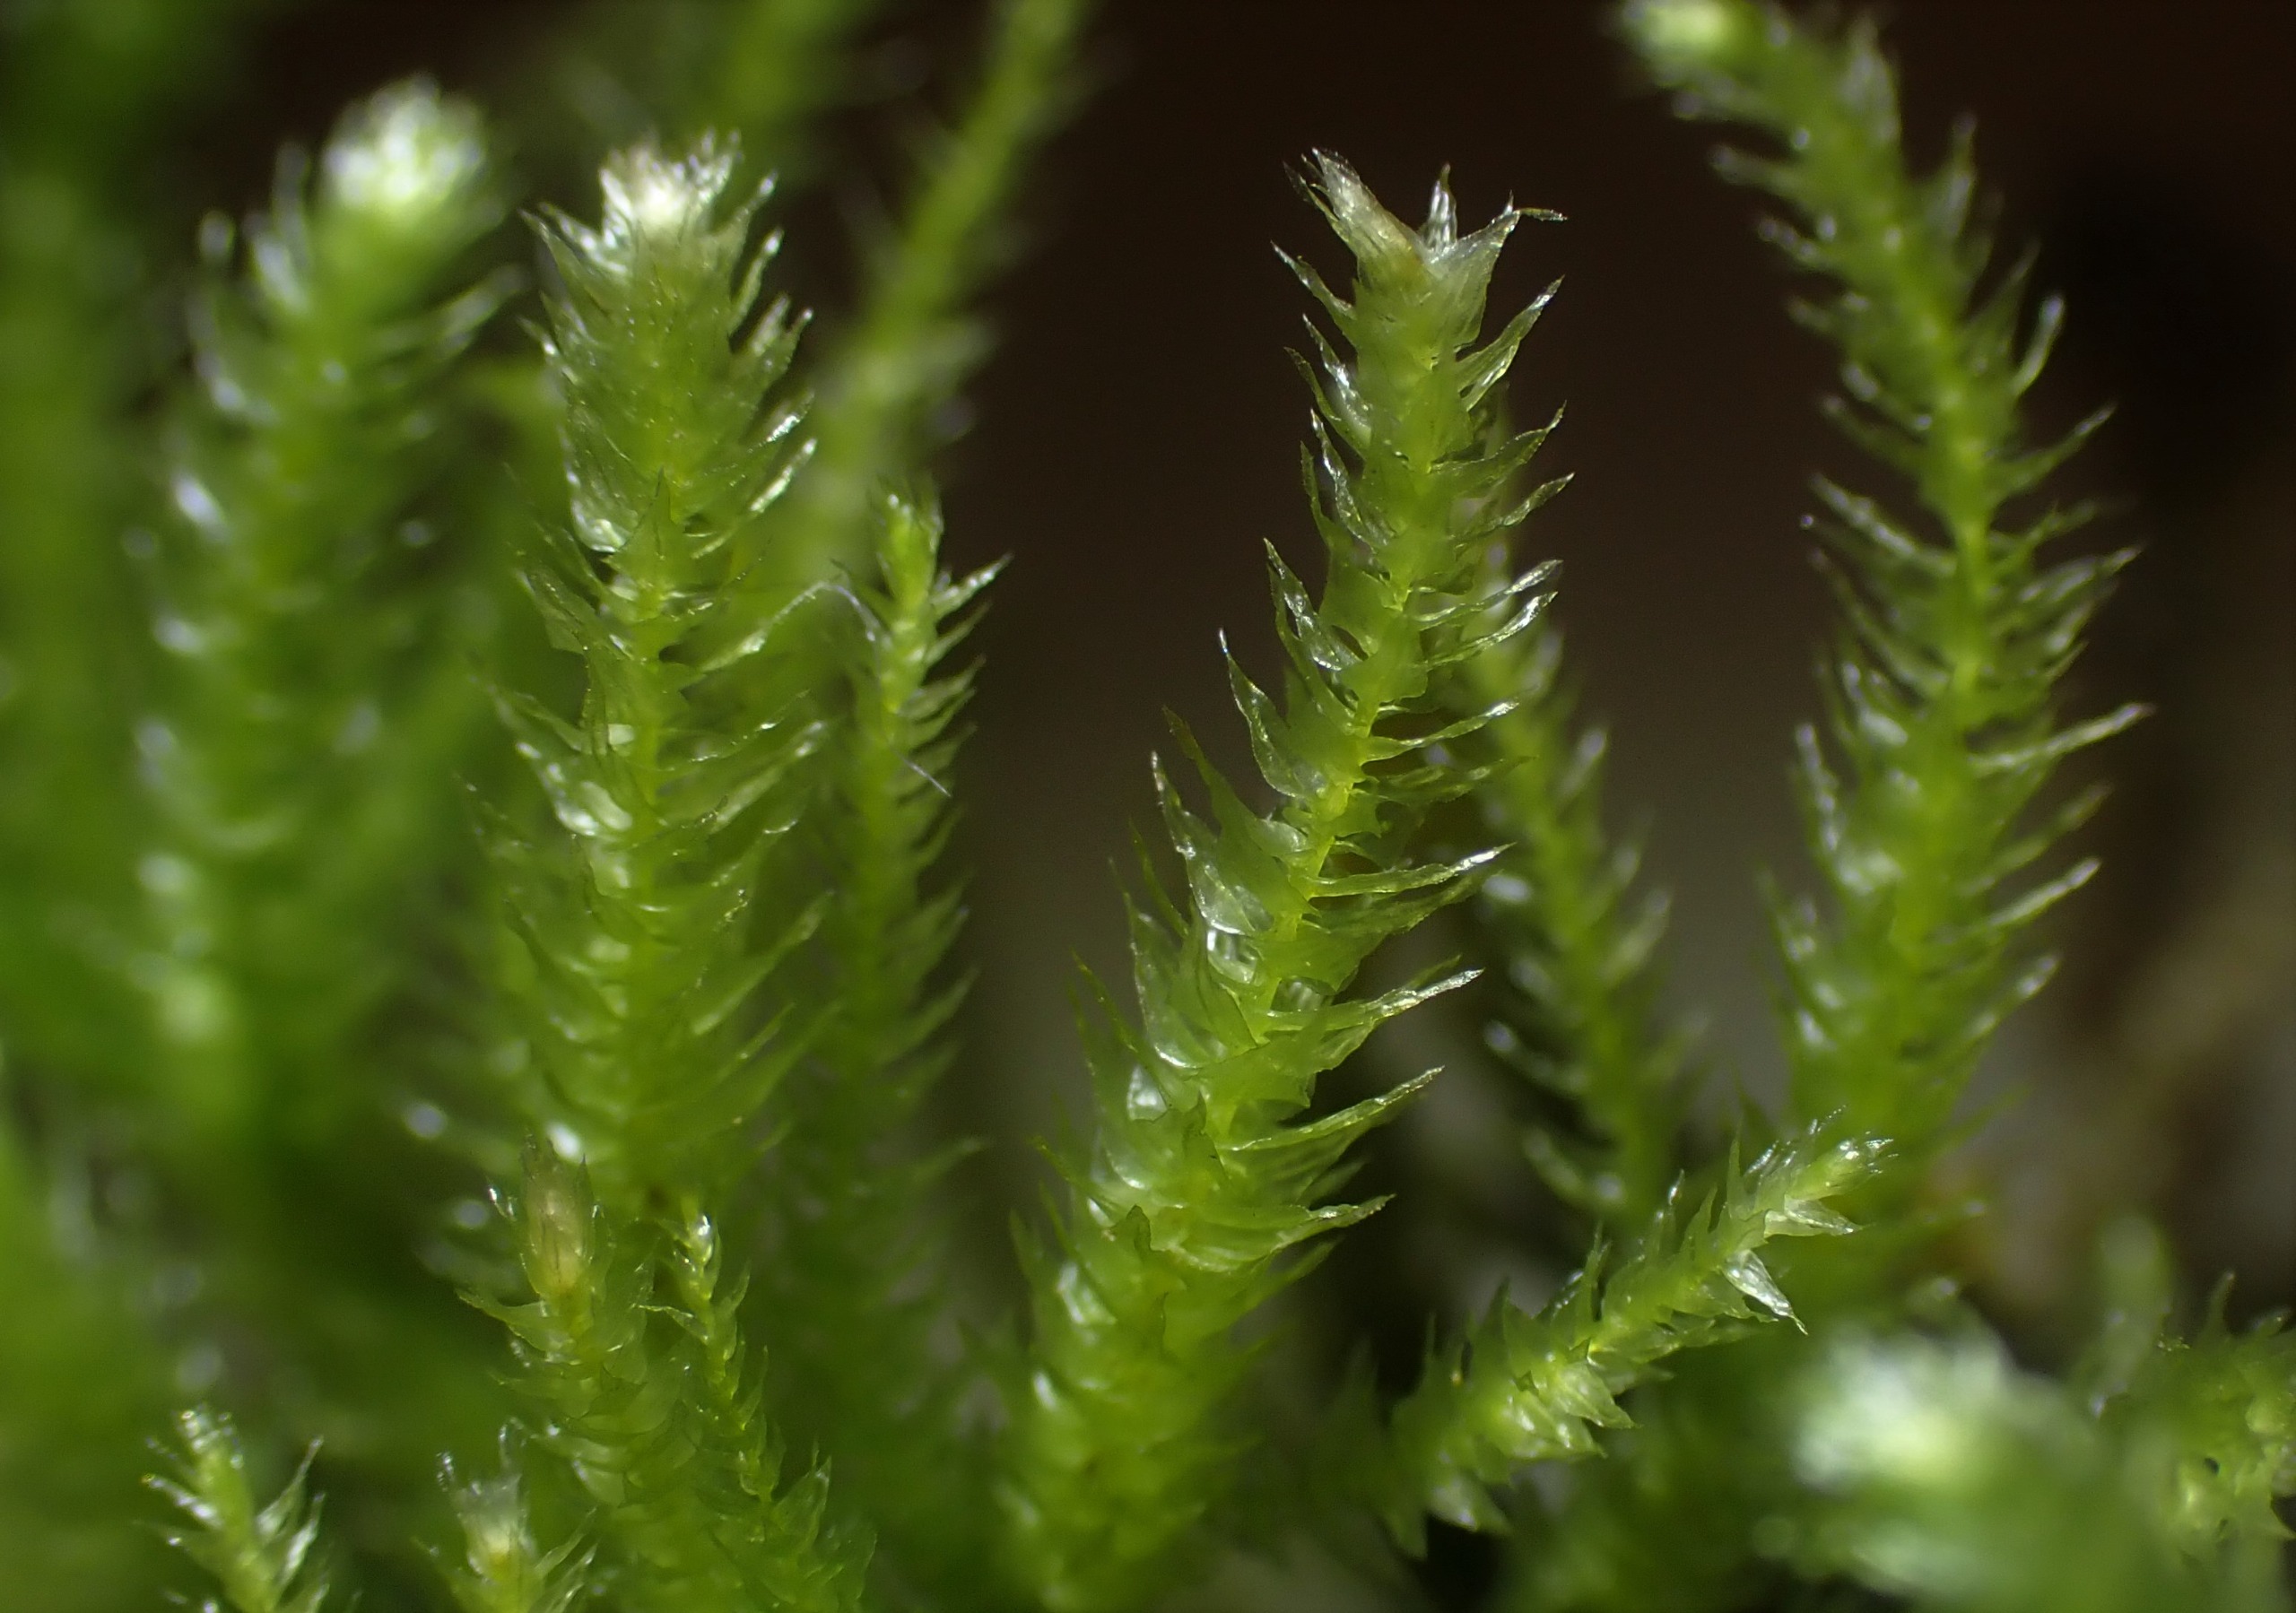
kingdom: Plantae
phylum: Bryophyta
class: Bryopsida
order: Hypnales
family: Brachytheciaceae
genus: Eurhynchium
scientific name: Eurhynchium striatum
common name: Stribet næbmos
